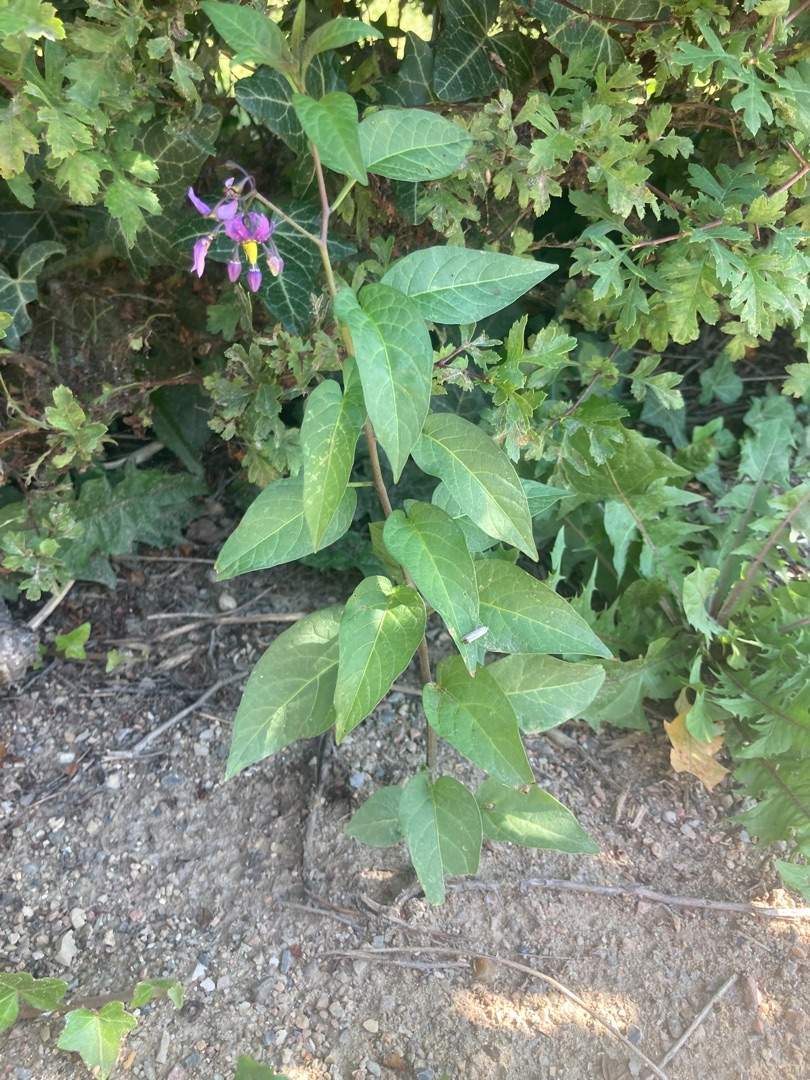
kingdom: Plantae
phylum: Tracheophyta
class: Magnoliopsida
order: Solanales
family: Solanaceae
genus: Solanum
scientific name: Solanum dulcamara
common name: Bittersød natskygge
